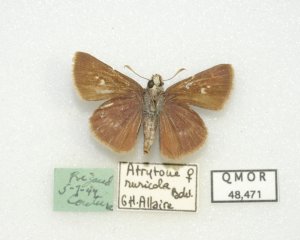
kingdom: Animalia
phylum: Arthropoda
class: Insecta
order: Lepidoptera
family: Hesperiidae
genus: Euphyes
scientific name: Euphyes vestris
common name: Dun Skipper
